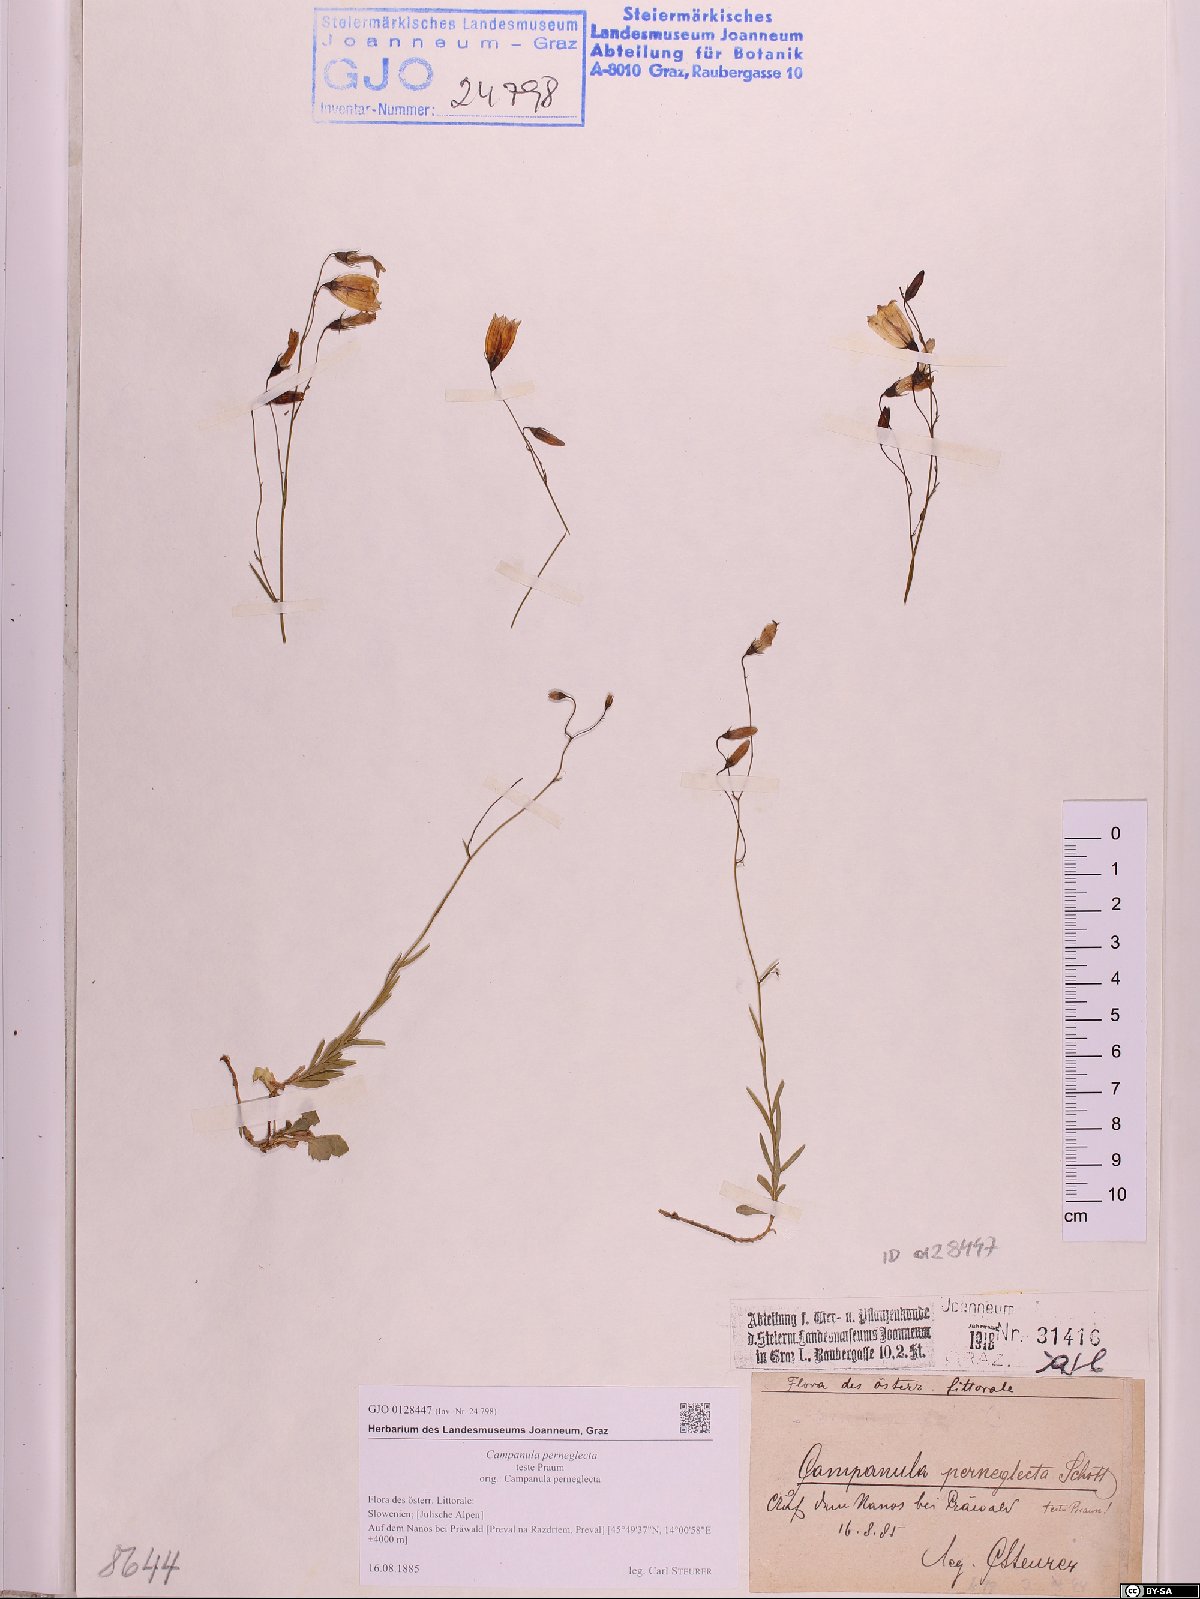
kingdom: Plantae
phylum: Tracheophyta
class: Magnoliopsida
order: Asterales
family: Campanulaceae
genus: Campanula
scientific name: Campanula cochleariifolia
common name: Fairies'-thimbles
